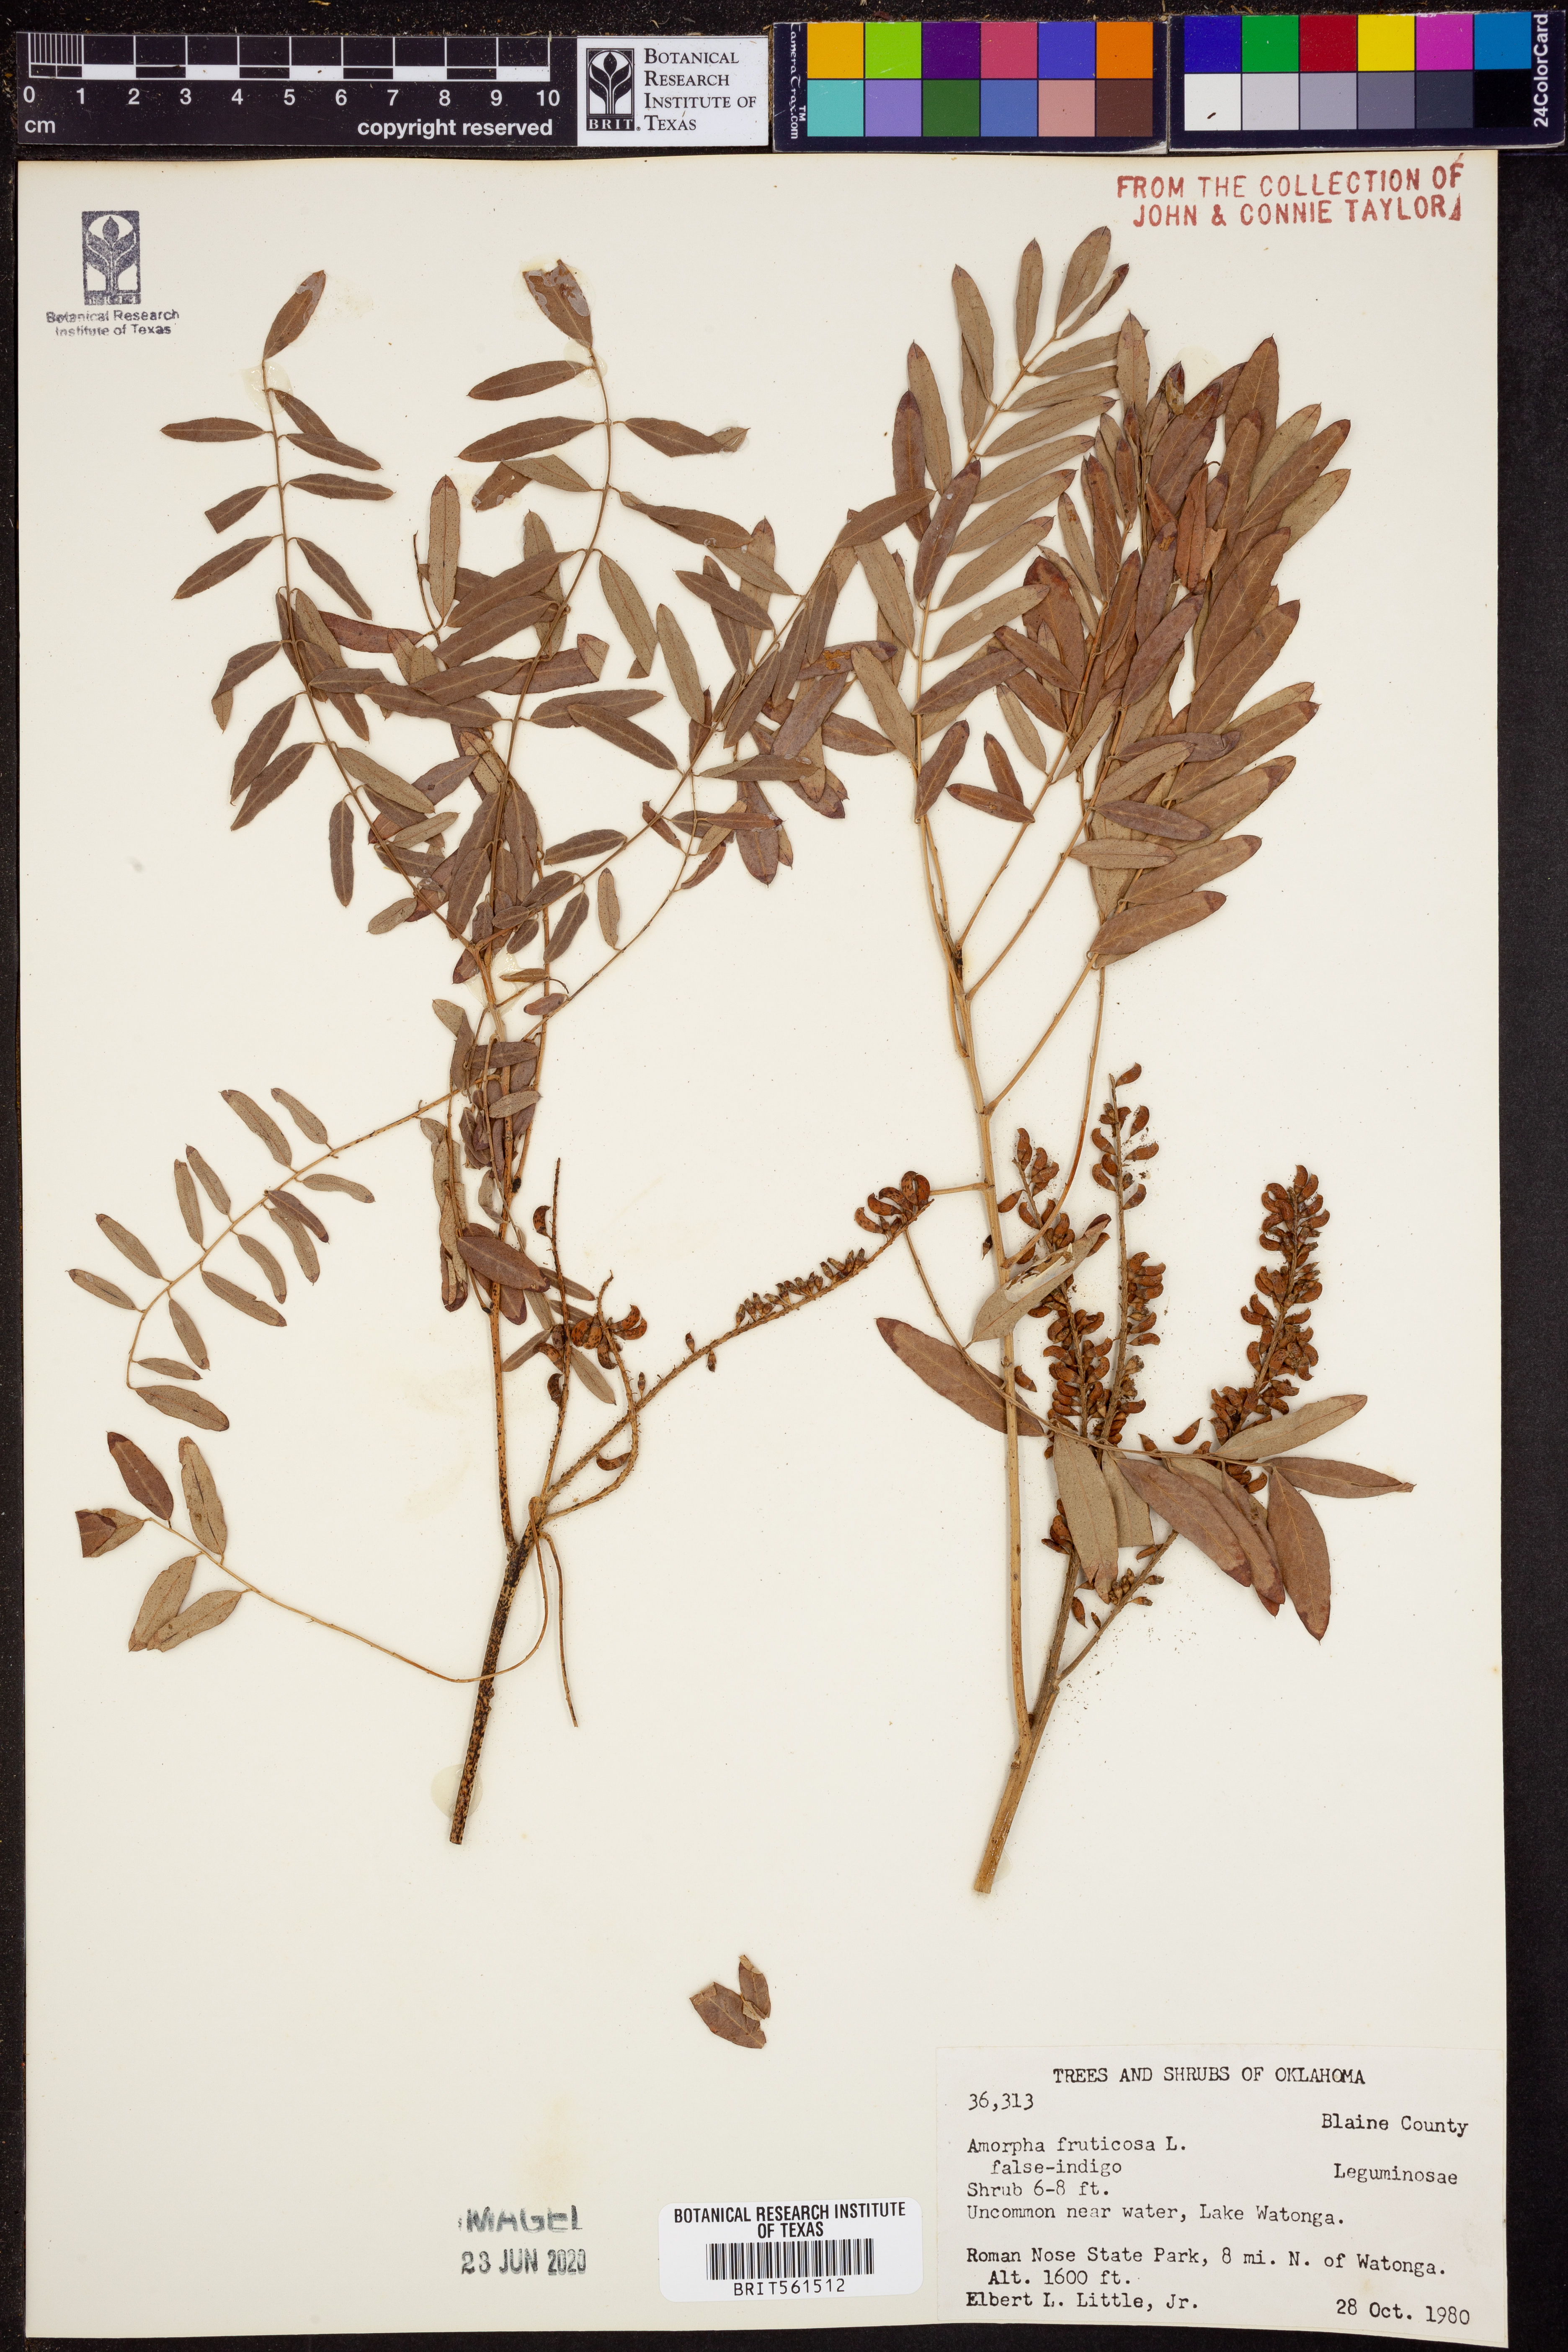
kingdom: Plantae
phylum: Tracheophyta
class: Magnoliopsida
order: Fabales
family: Fabaceae
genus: Amorpha
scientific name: Amorpha fruticosa
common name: False indigo
